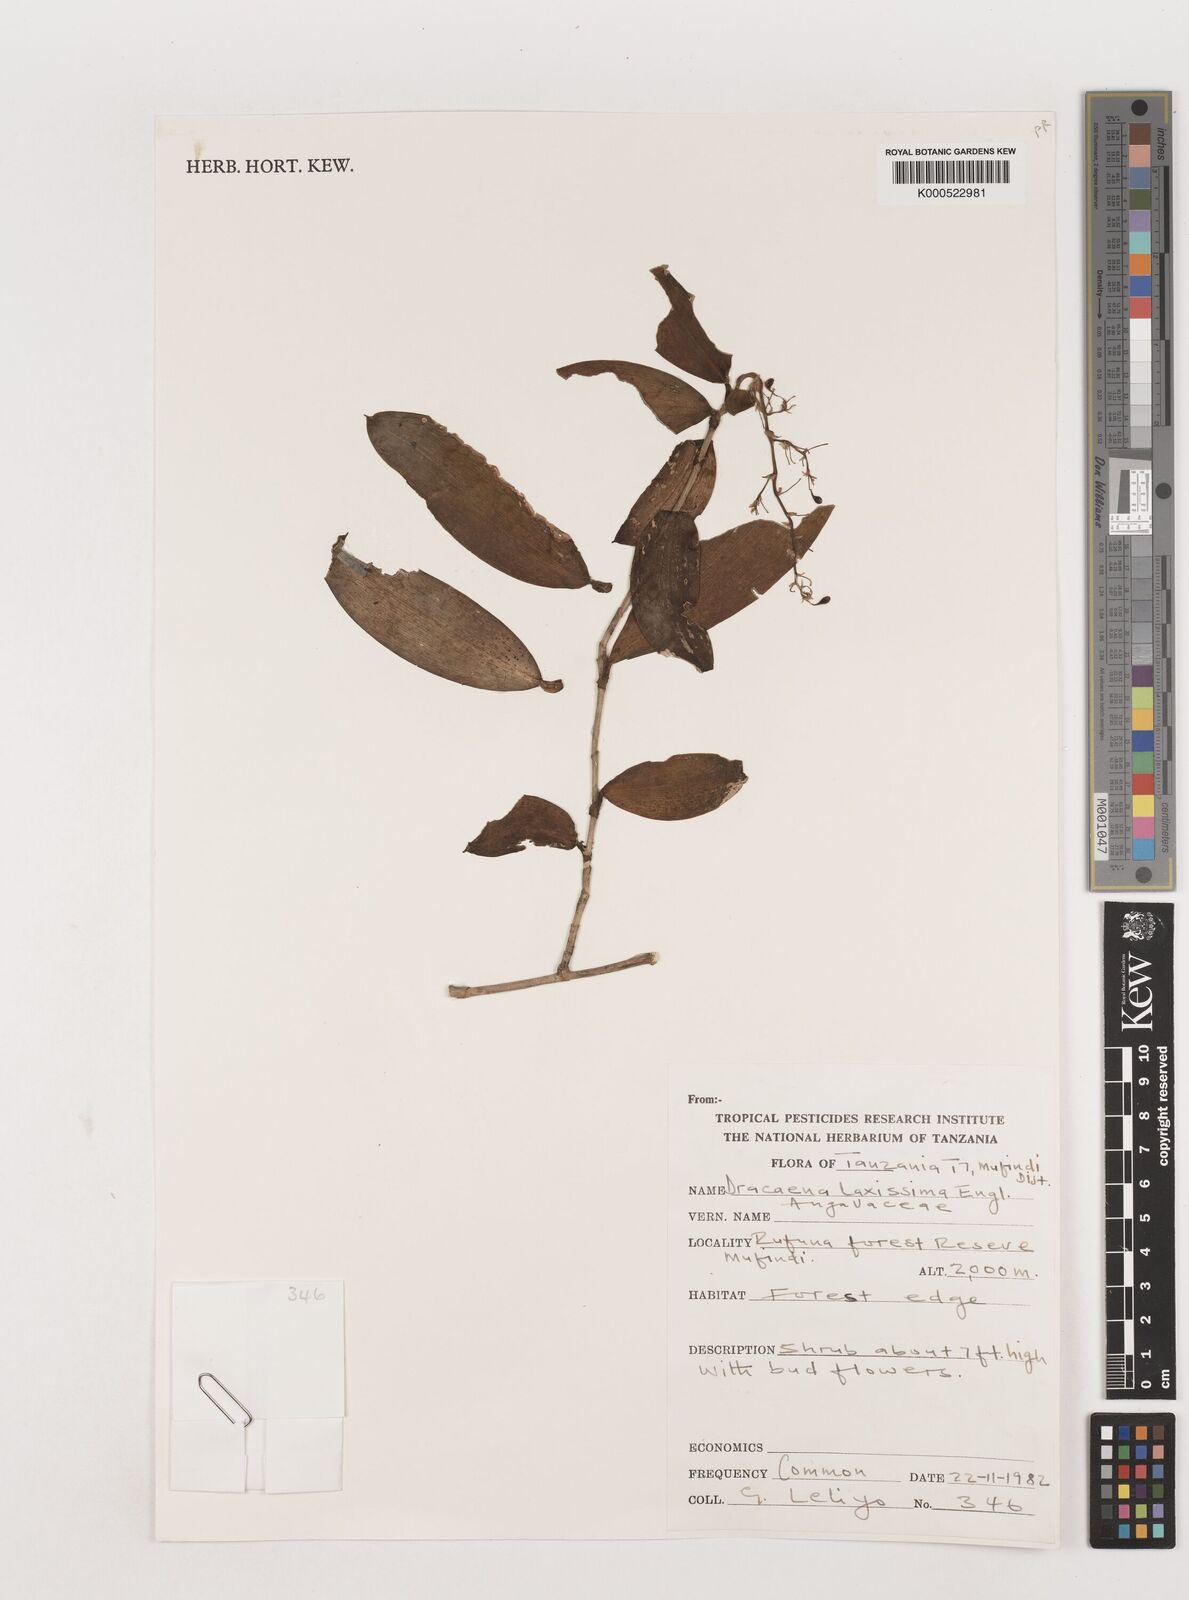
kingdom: Plantae
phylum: Tracheophyta
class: Liliopsida
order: Asparagales
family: Asparagaceae
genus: Dracaena
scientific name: Dracaena laxissima
